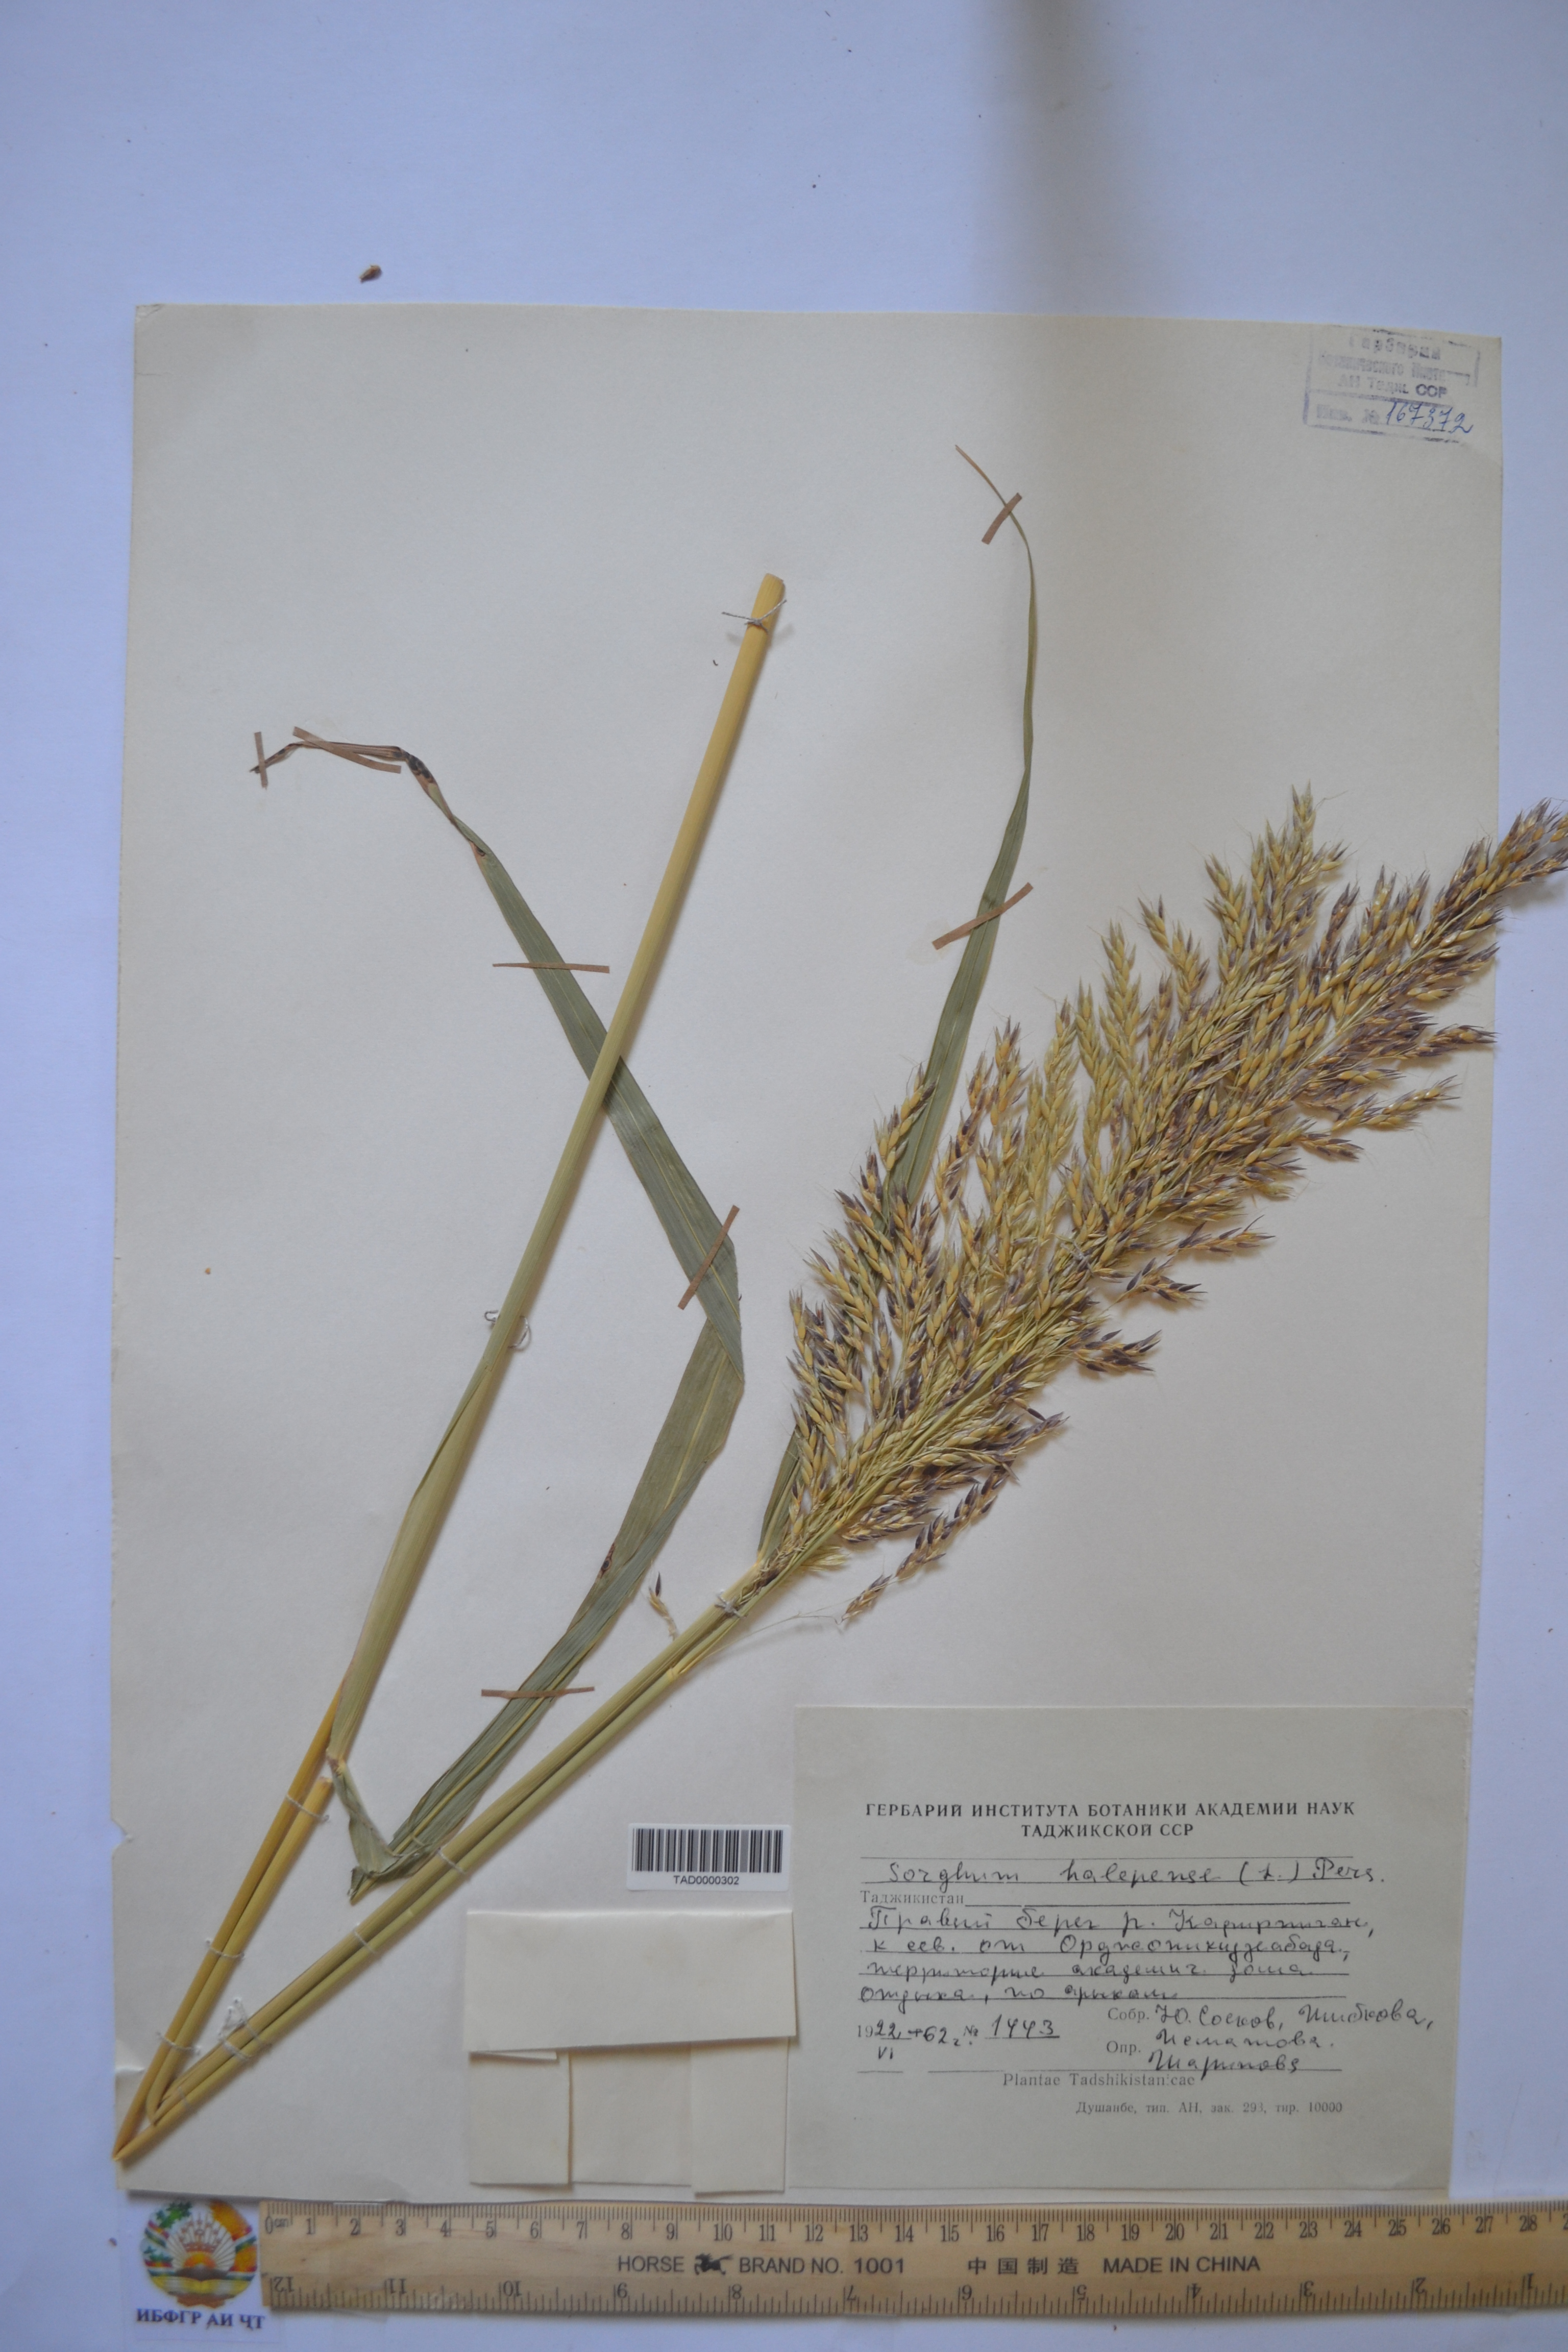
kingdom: Plantae
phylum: Tracheophyta
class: Liliopsida
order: Poales
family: Poaceae
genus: Andropogon
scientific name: Andropogon halepensis
